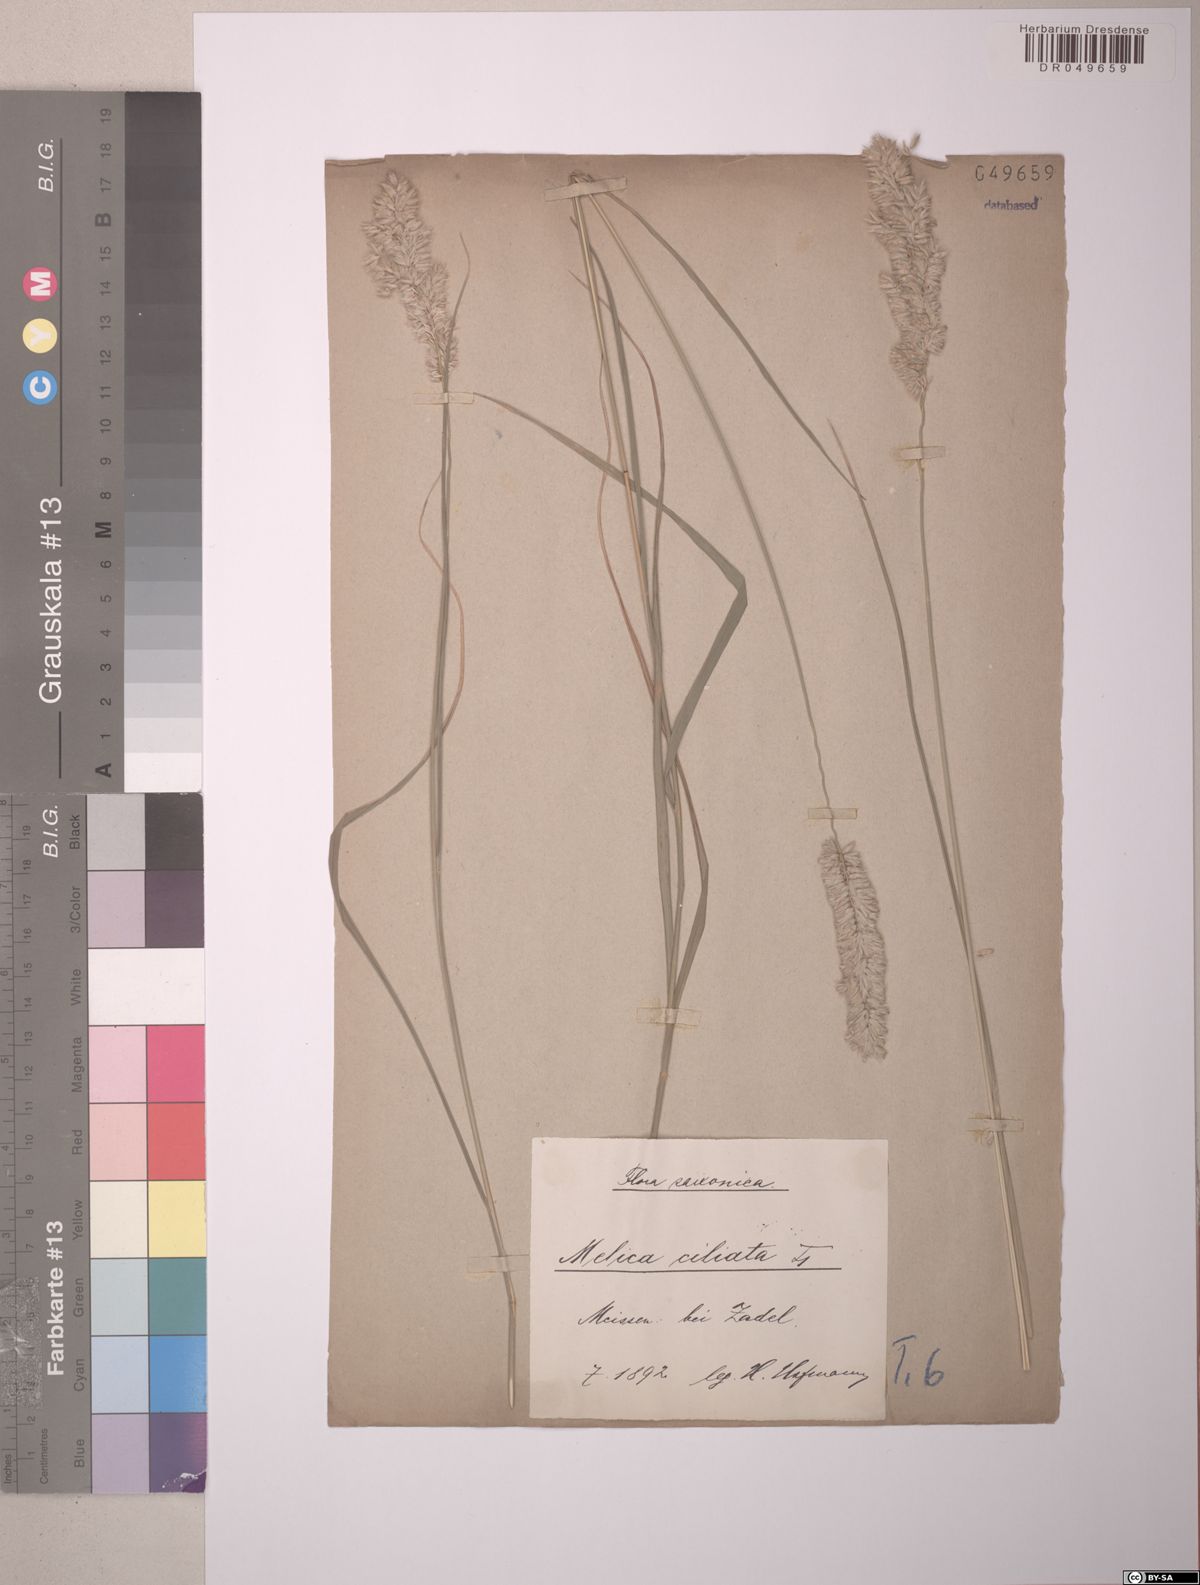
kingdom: Plantae
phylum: Tracheophyta
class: Liliopsida
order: Poales
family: Poaceae
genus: Melica
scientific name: Melica ciliata
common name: Hairy melicgrass
